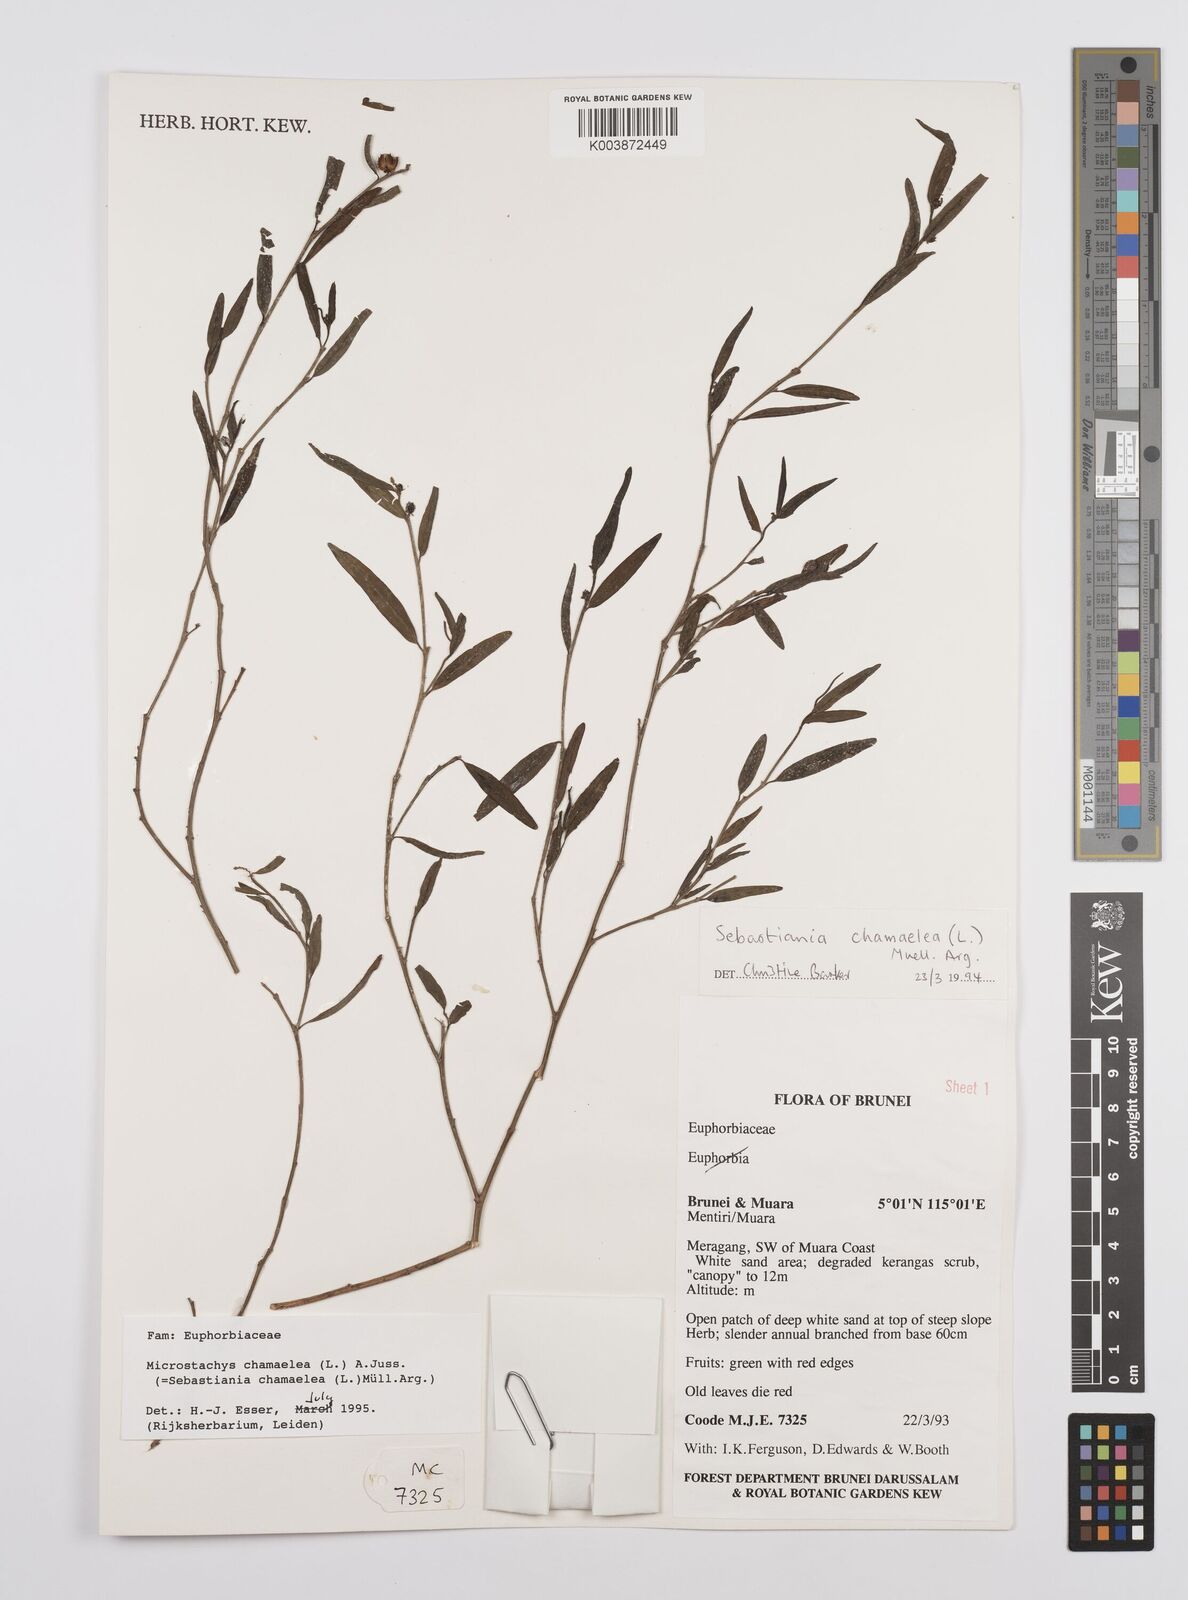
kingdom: Plantae
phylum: Tracheophyta
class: Magnoliopsida
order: Malpighiales
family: Euphorbiaceae
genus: Microstachys
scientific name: Microstachys chamaelea
